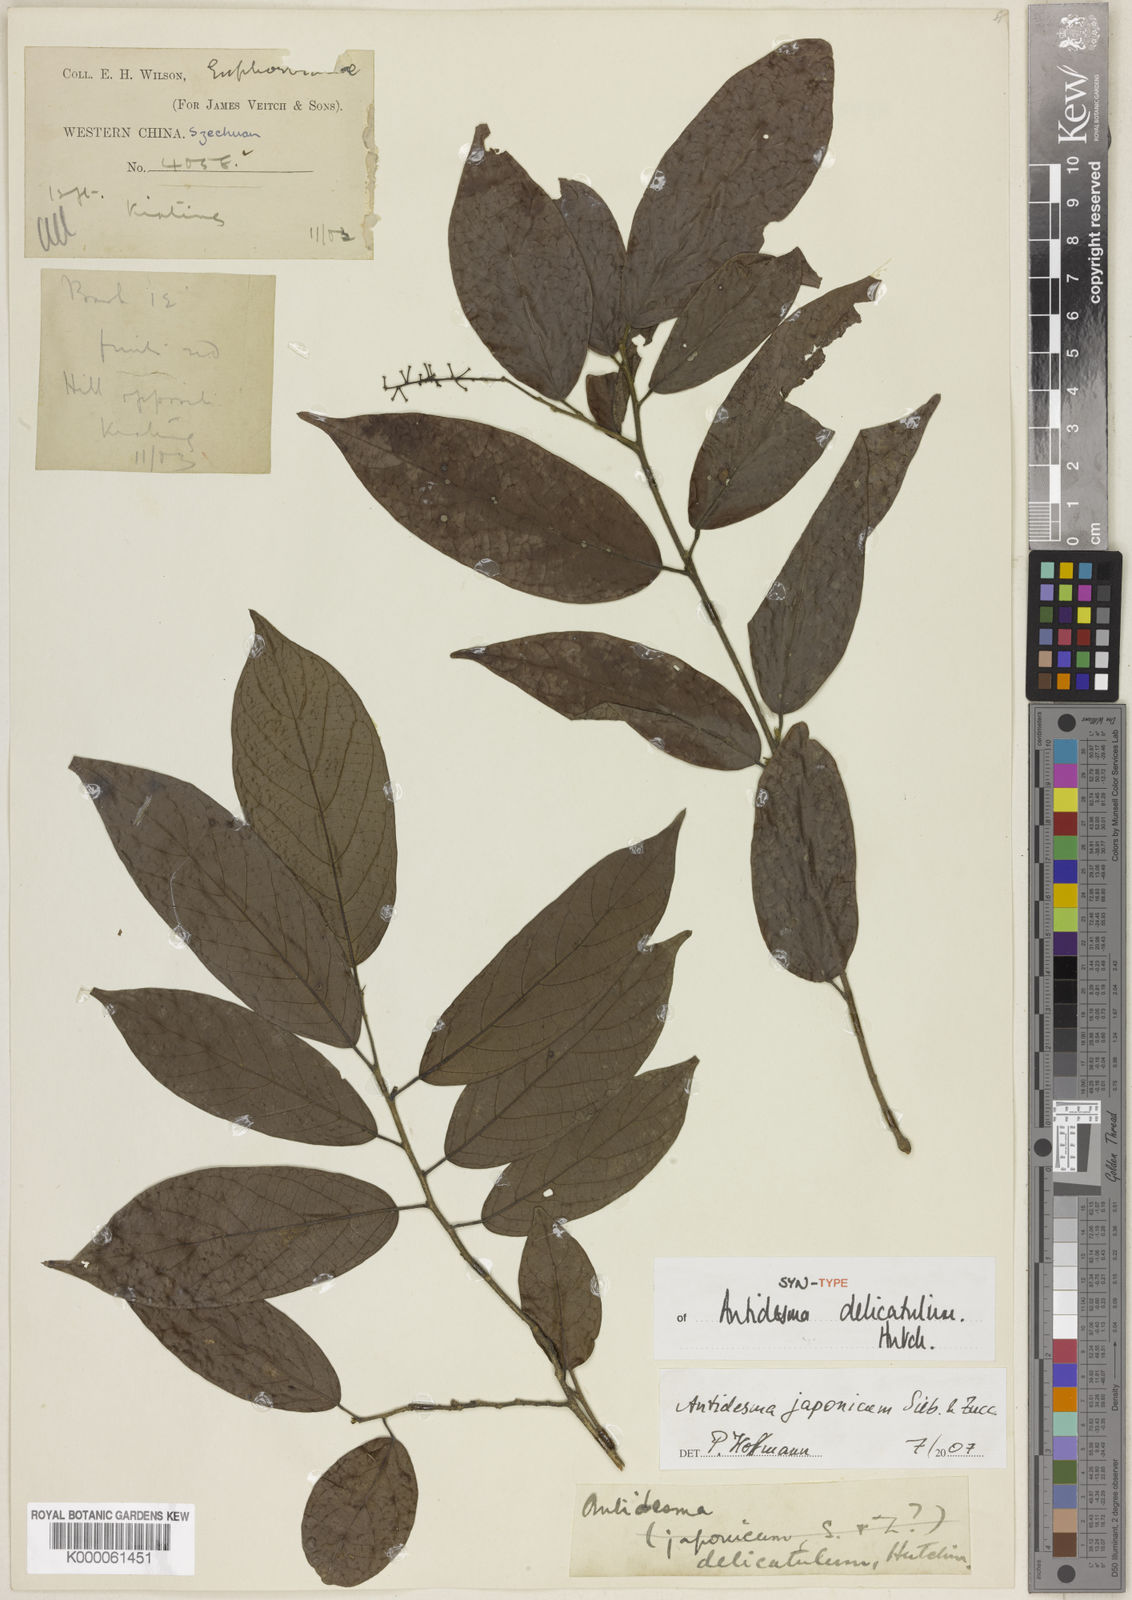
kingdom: Plantae
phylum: Tracheophyta
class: Magnoliopsida
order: Malpighiales
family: Phyllanthaceae
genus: Antidesma
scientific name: Antidesma japonicum
